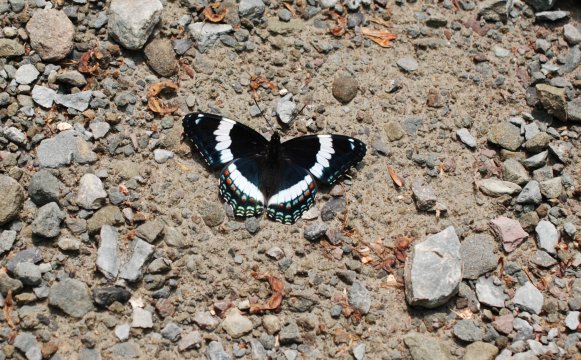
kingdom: Animalia
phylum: Arthropoda
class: Insecta
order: Lepidoptera
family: Nymphalidae
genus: Limenitis
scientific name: Limenitis arthemis
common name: Red-spotted Admiral
